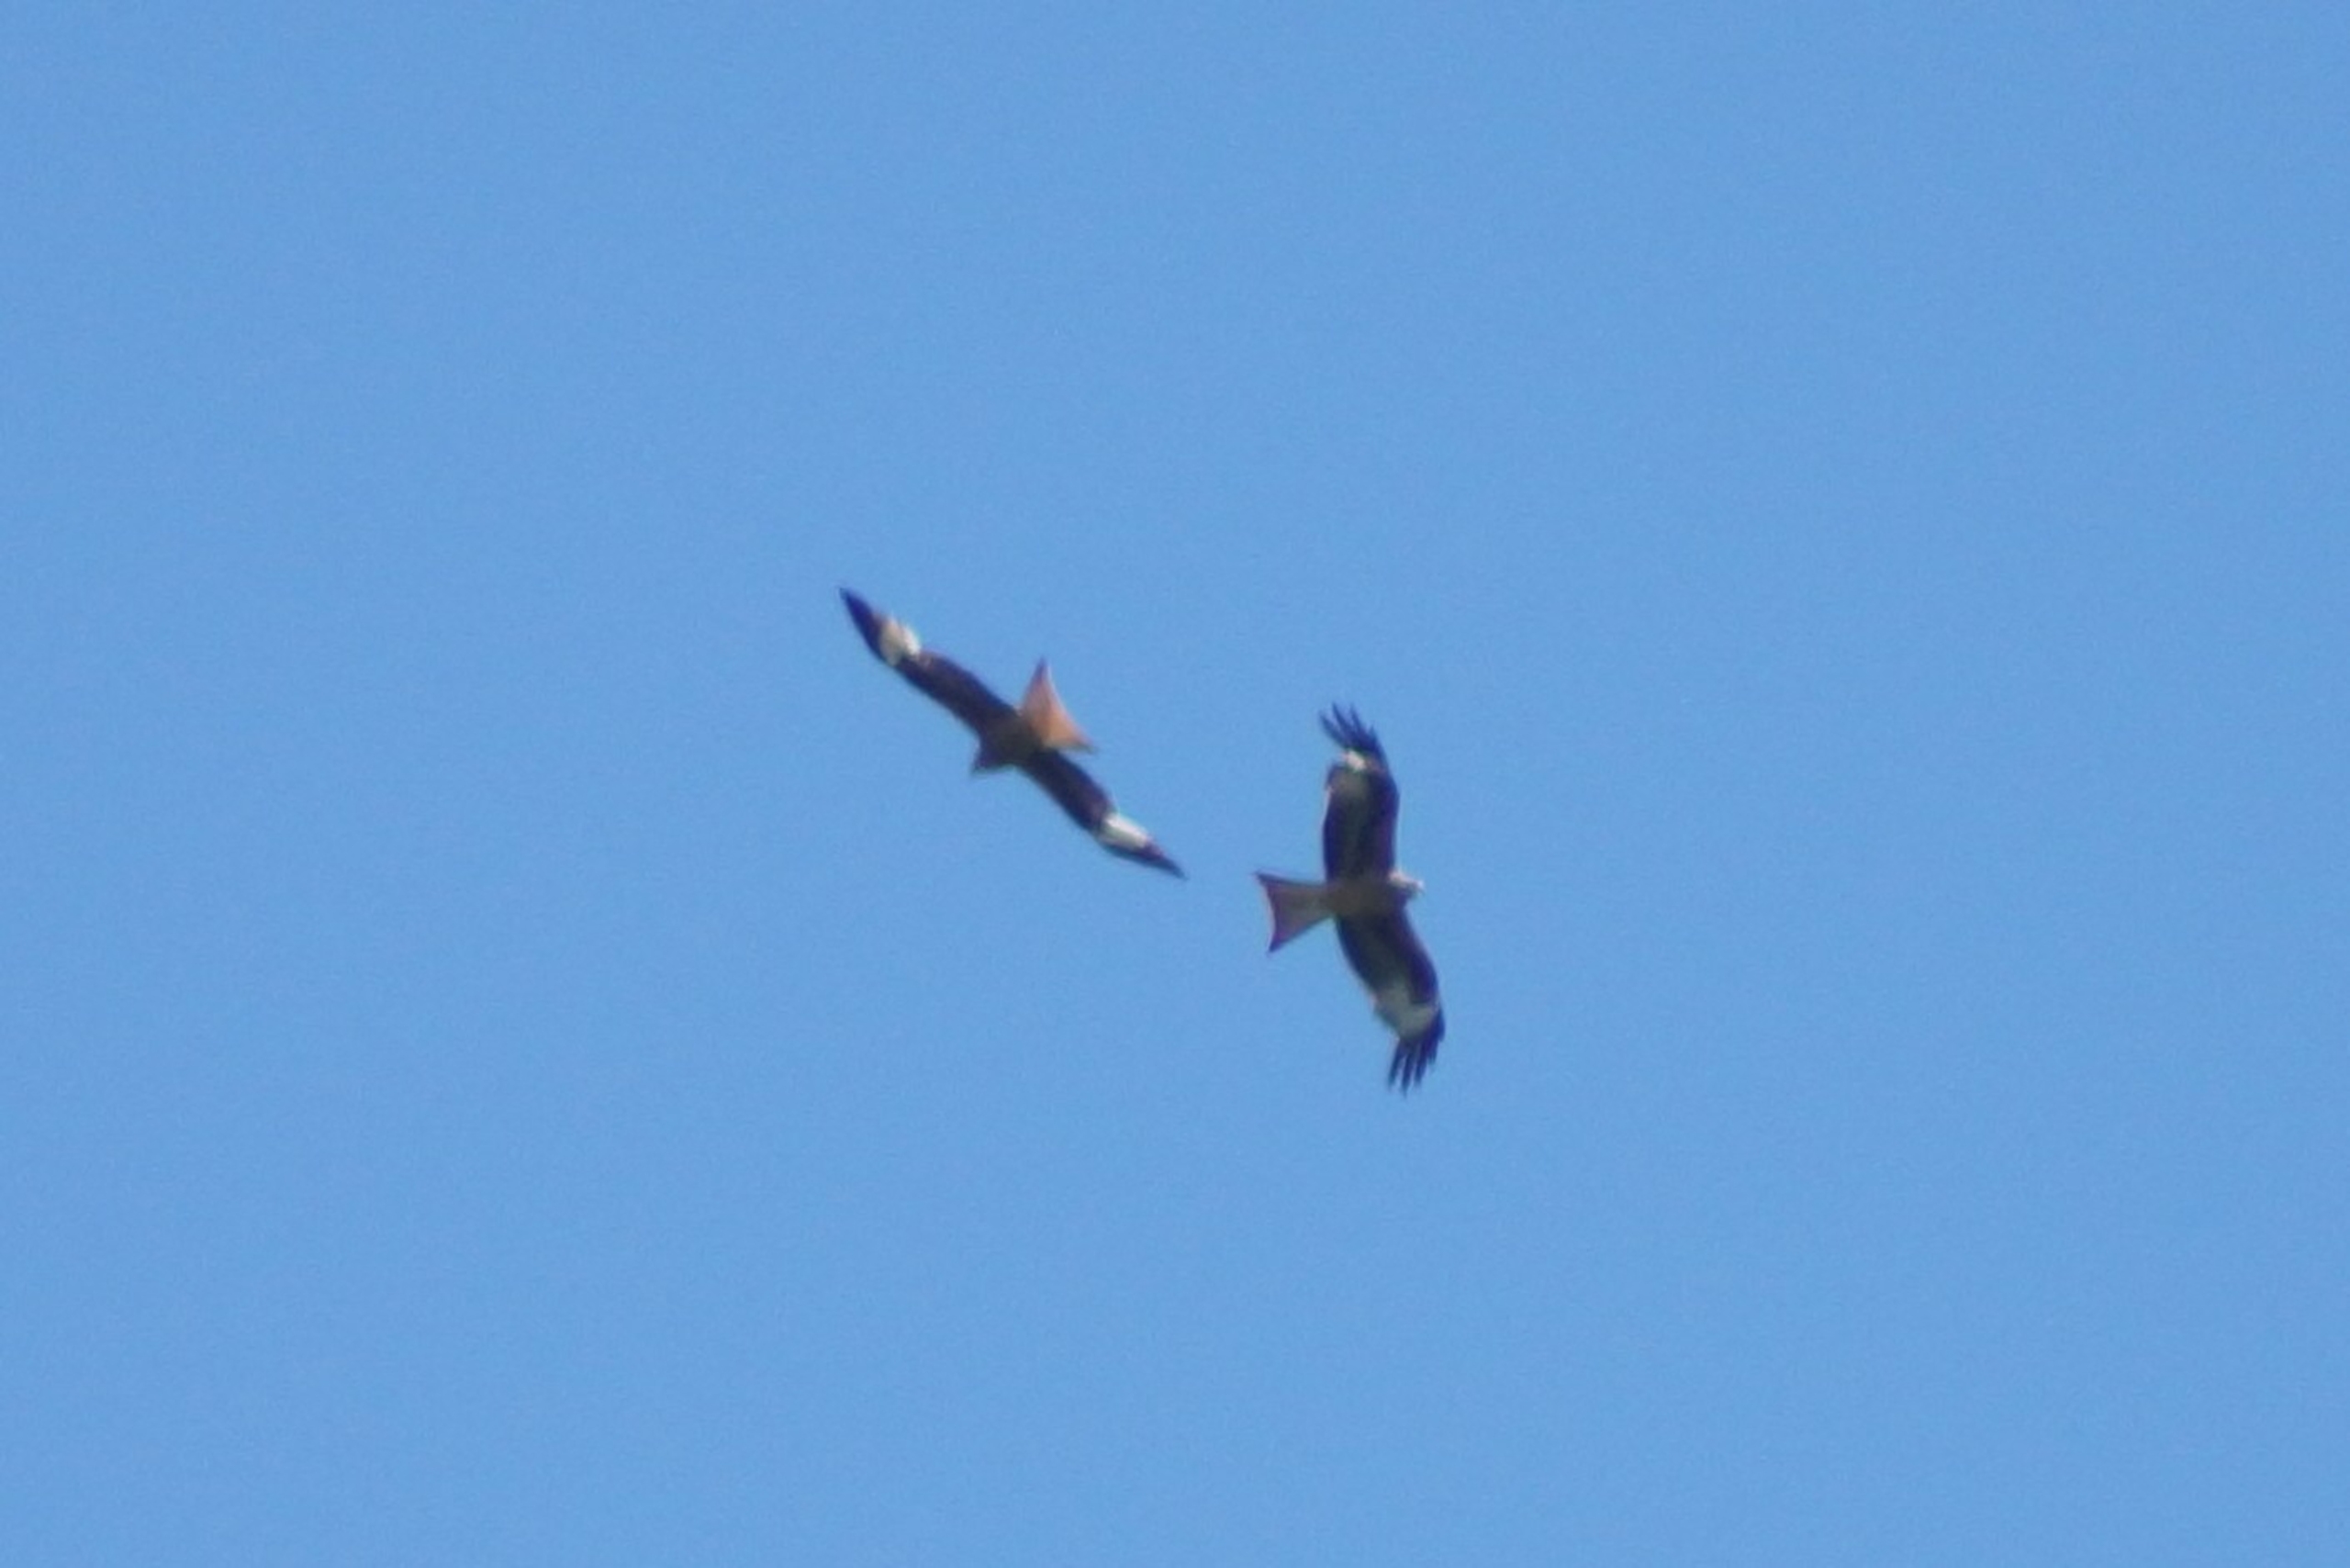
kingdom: Animalia
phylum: Chordata
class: Aves
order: Accipitriformes
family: Accipitridae
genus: Milvus
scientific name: Milvus milvus
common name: Rød glente
